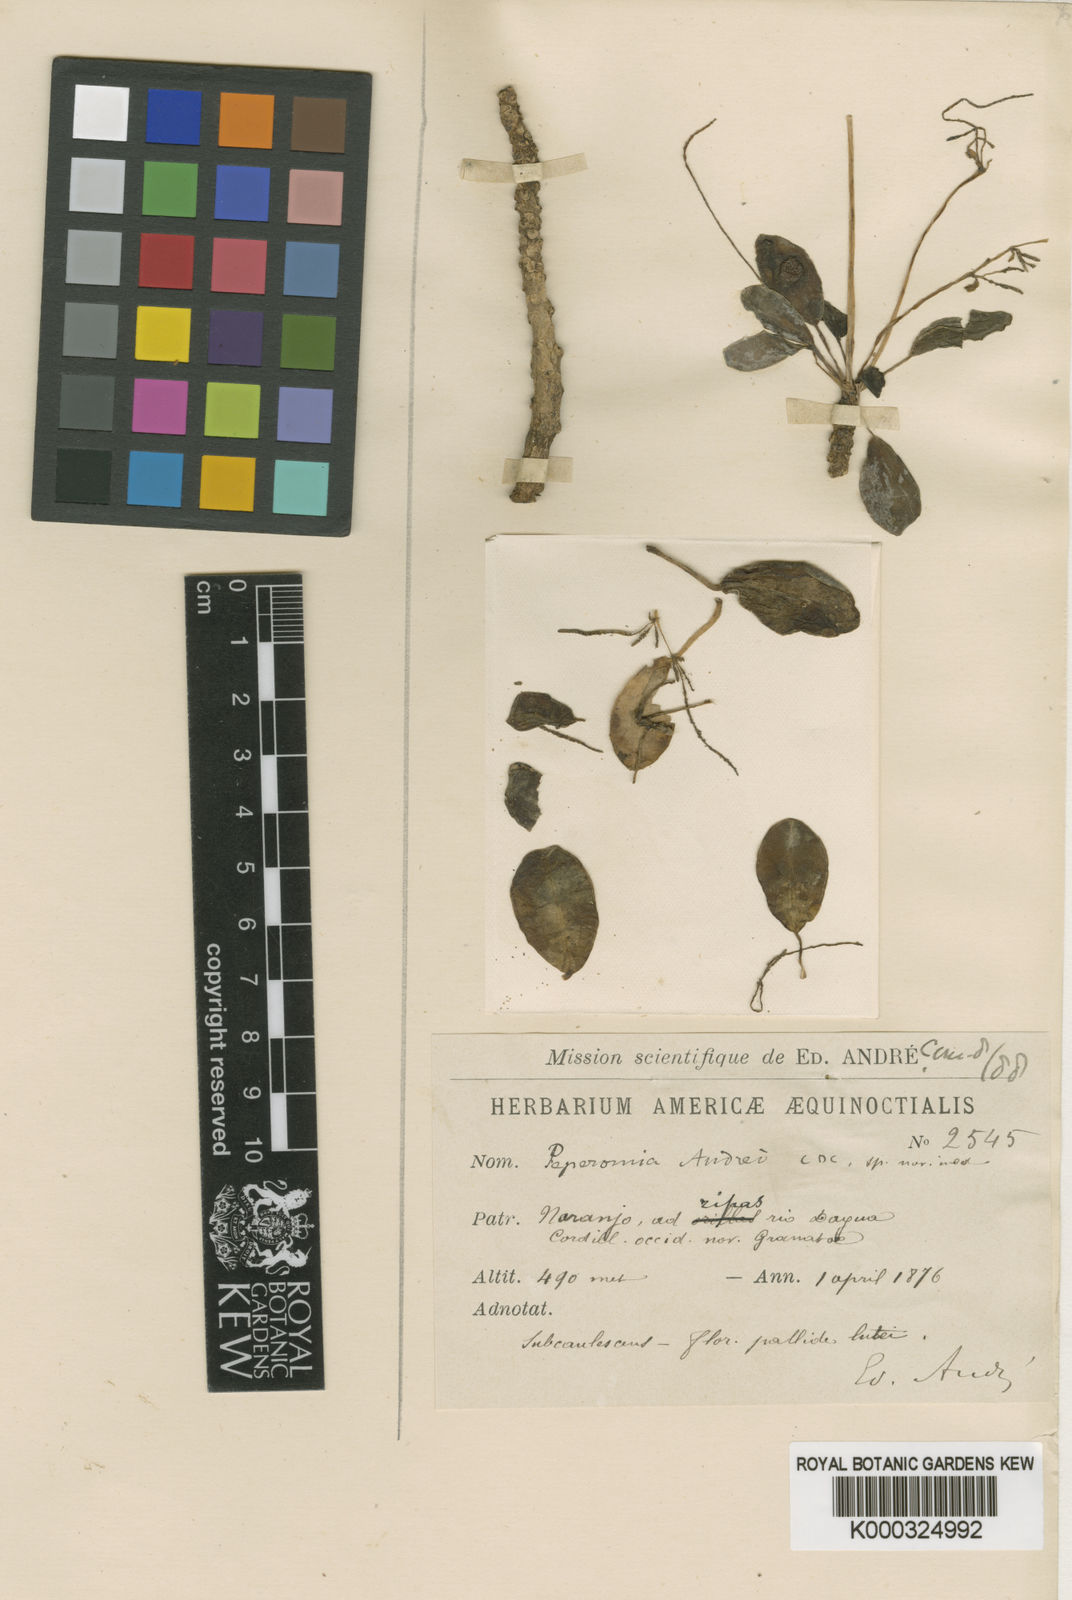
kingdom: Plantae
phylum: Tracheophyta
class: Magnoliopsida
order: Piperales
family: Piperaceae
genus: Peperomia
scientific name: Peperomia andrei
